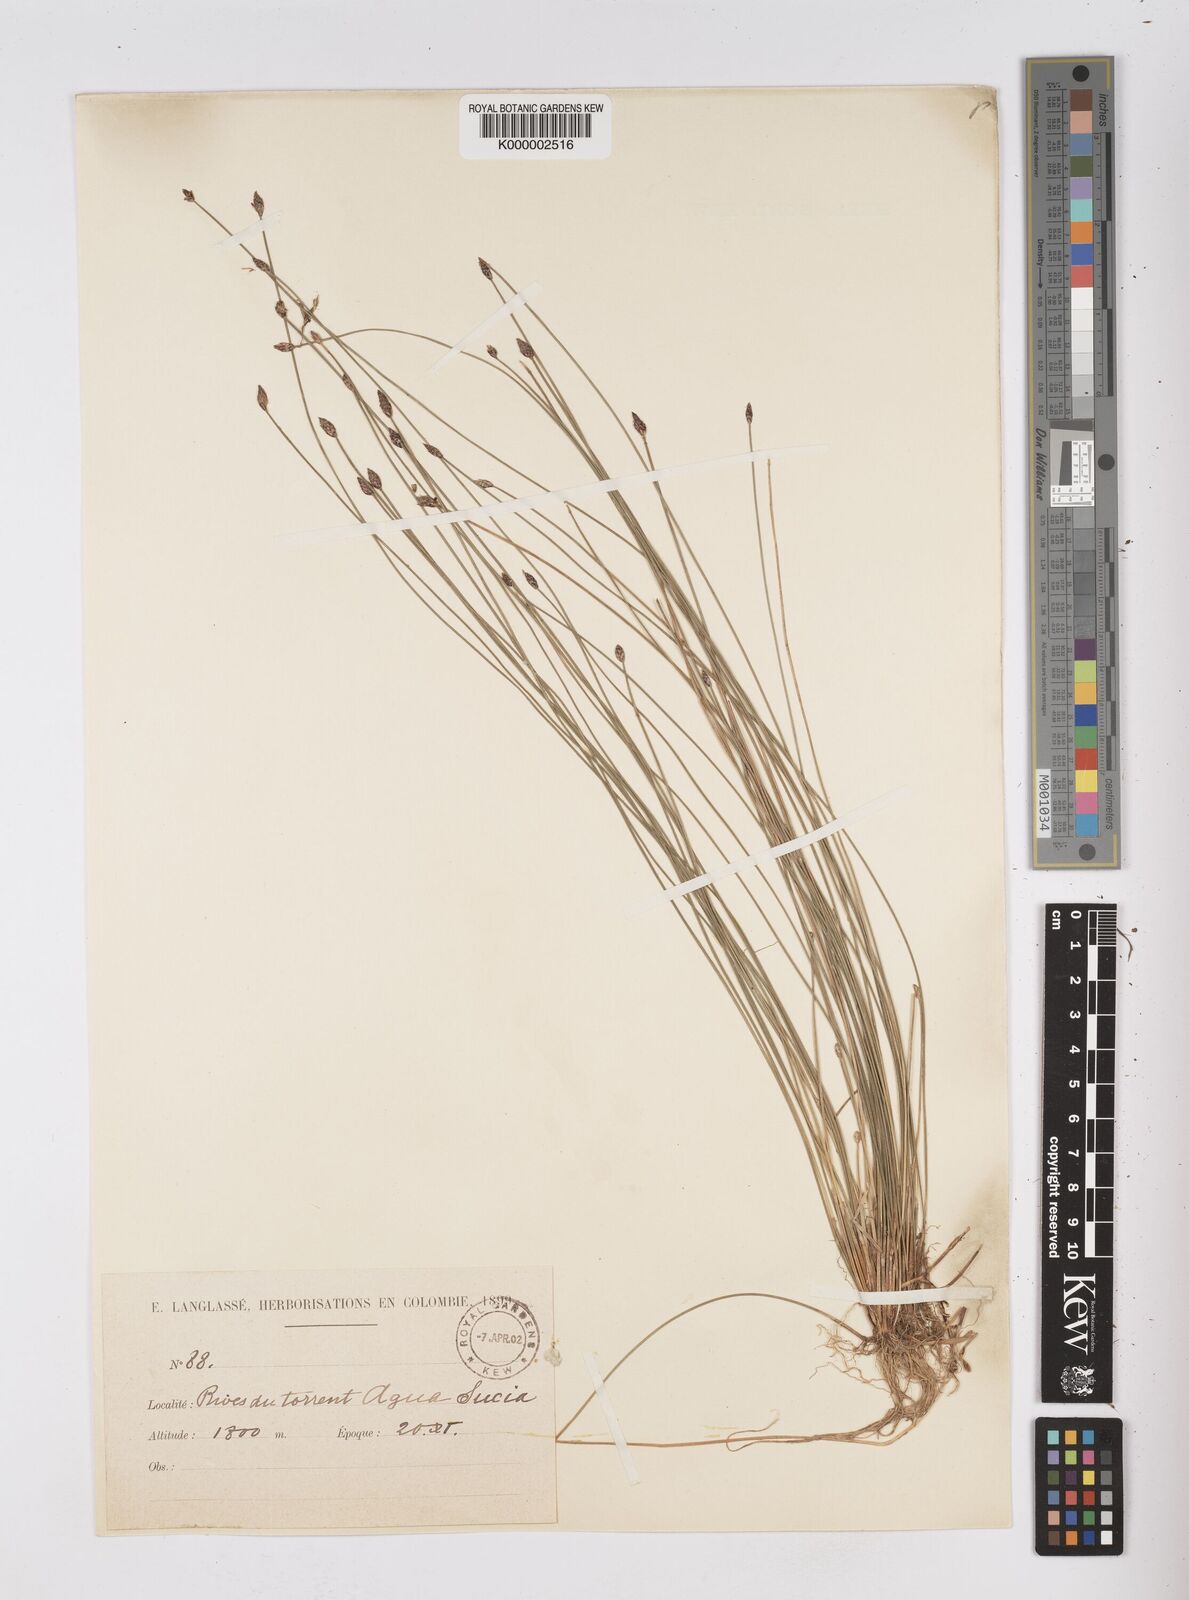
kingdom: Plantae
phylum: Tracheophyta
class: Liliopsida
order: Poales
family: Cyperaceae
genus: Eleocharis
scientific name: Eleocharis maculosa
